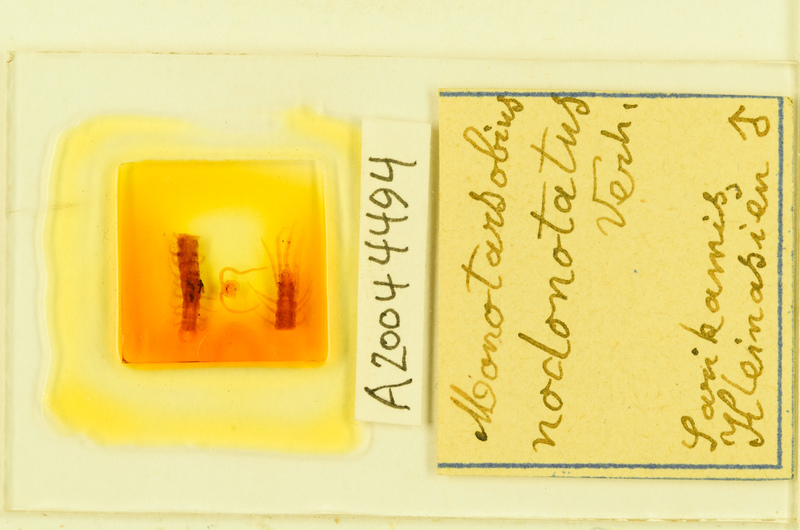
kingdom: Animalia
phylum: Arthropoda
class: Chilopoda
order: Lithobiomorpha
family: Lithobiidae
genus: Lithobius
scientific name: Lithobius ferganensis
